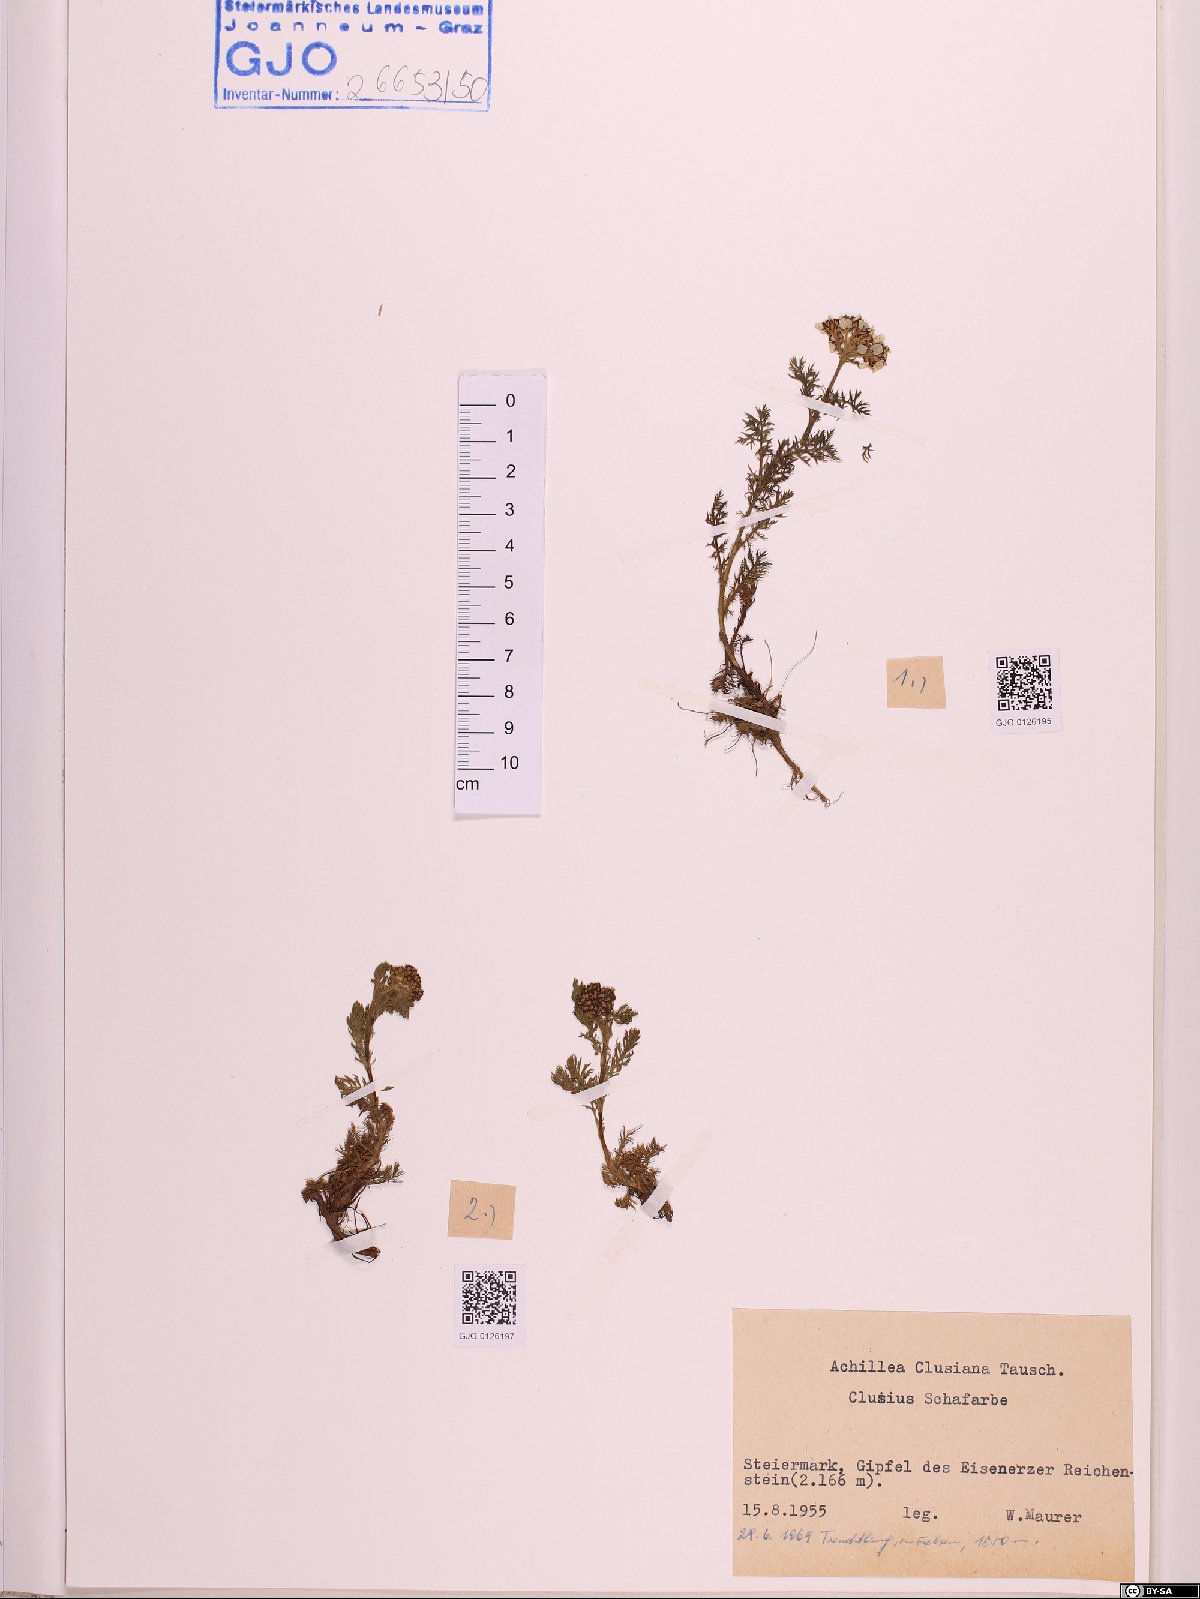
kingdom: Plantae
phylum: Tracheophyta
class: Magnoliopsida
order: Asterales
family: Asteraceae
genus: Achillea
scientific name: Achillea clusiana
